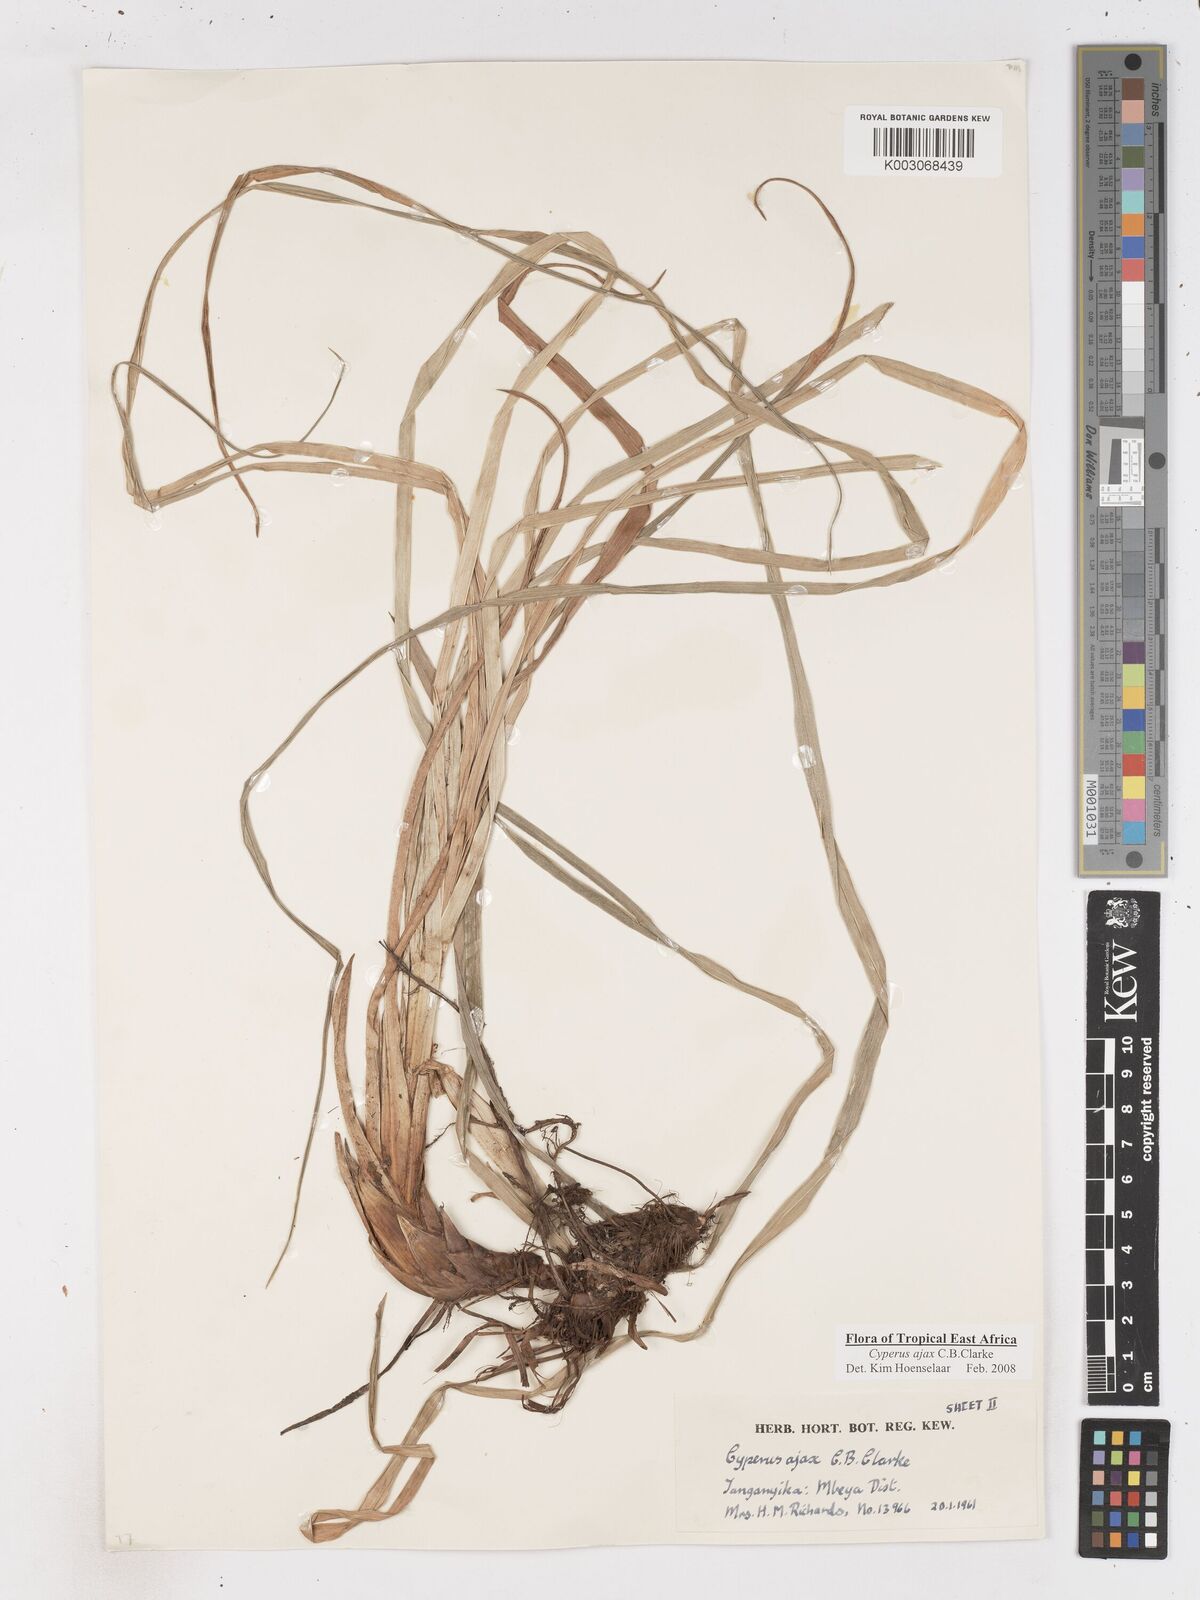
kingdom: Plantae
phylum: Tracheophyta
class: Liliopsida
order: Poales
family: Cyperaceae
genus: Cyperus
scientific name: Cyperus ajax
